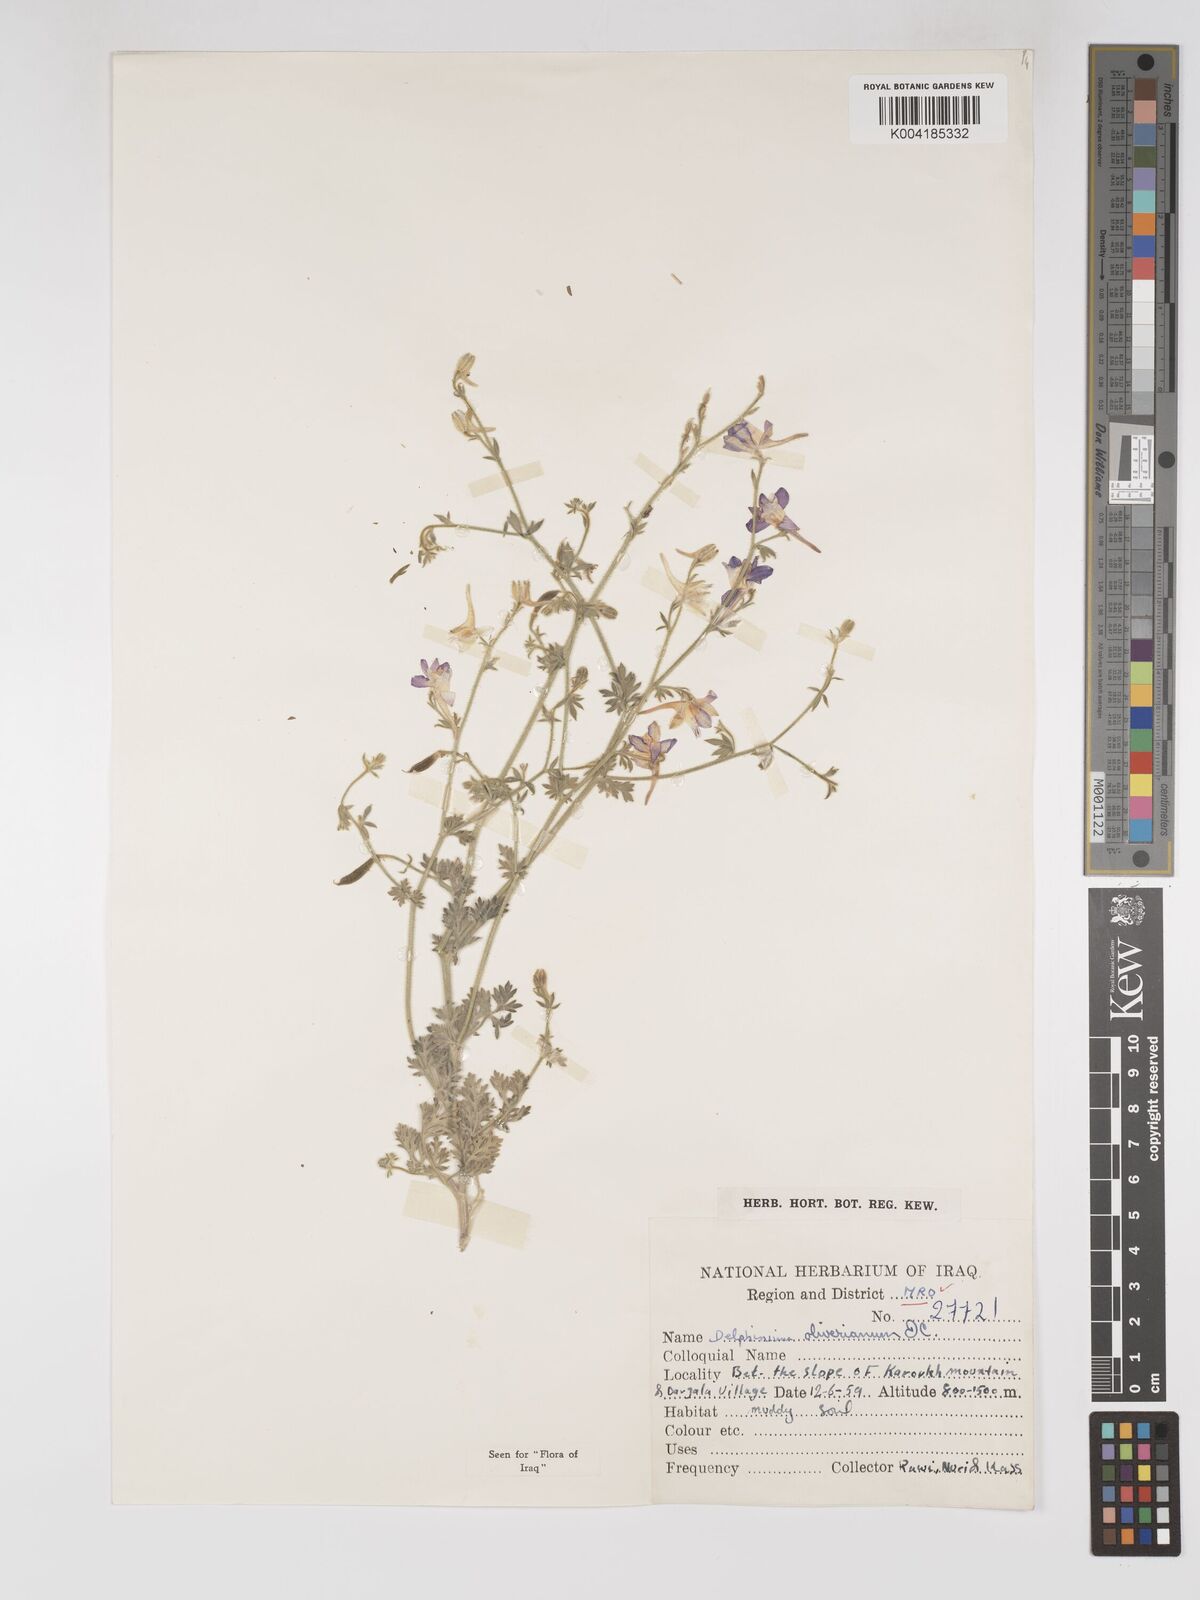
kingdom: Plantae
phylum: Tracheophyta
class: Magnoliopsida
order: Ranunculales
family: Ranunculaceae
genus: Delphinium
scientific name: Delphinium oliverianum
